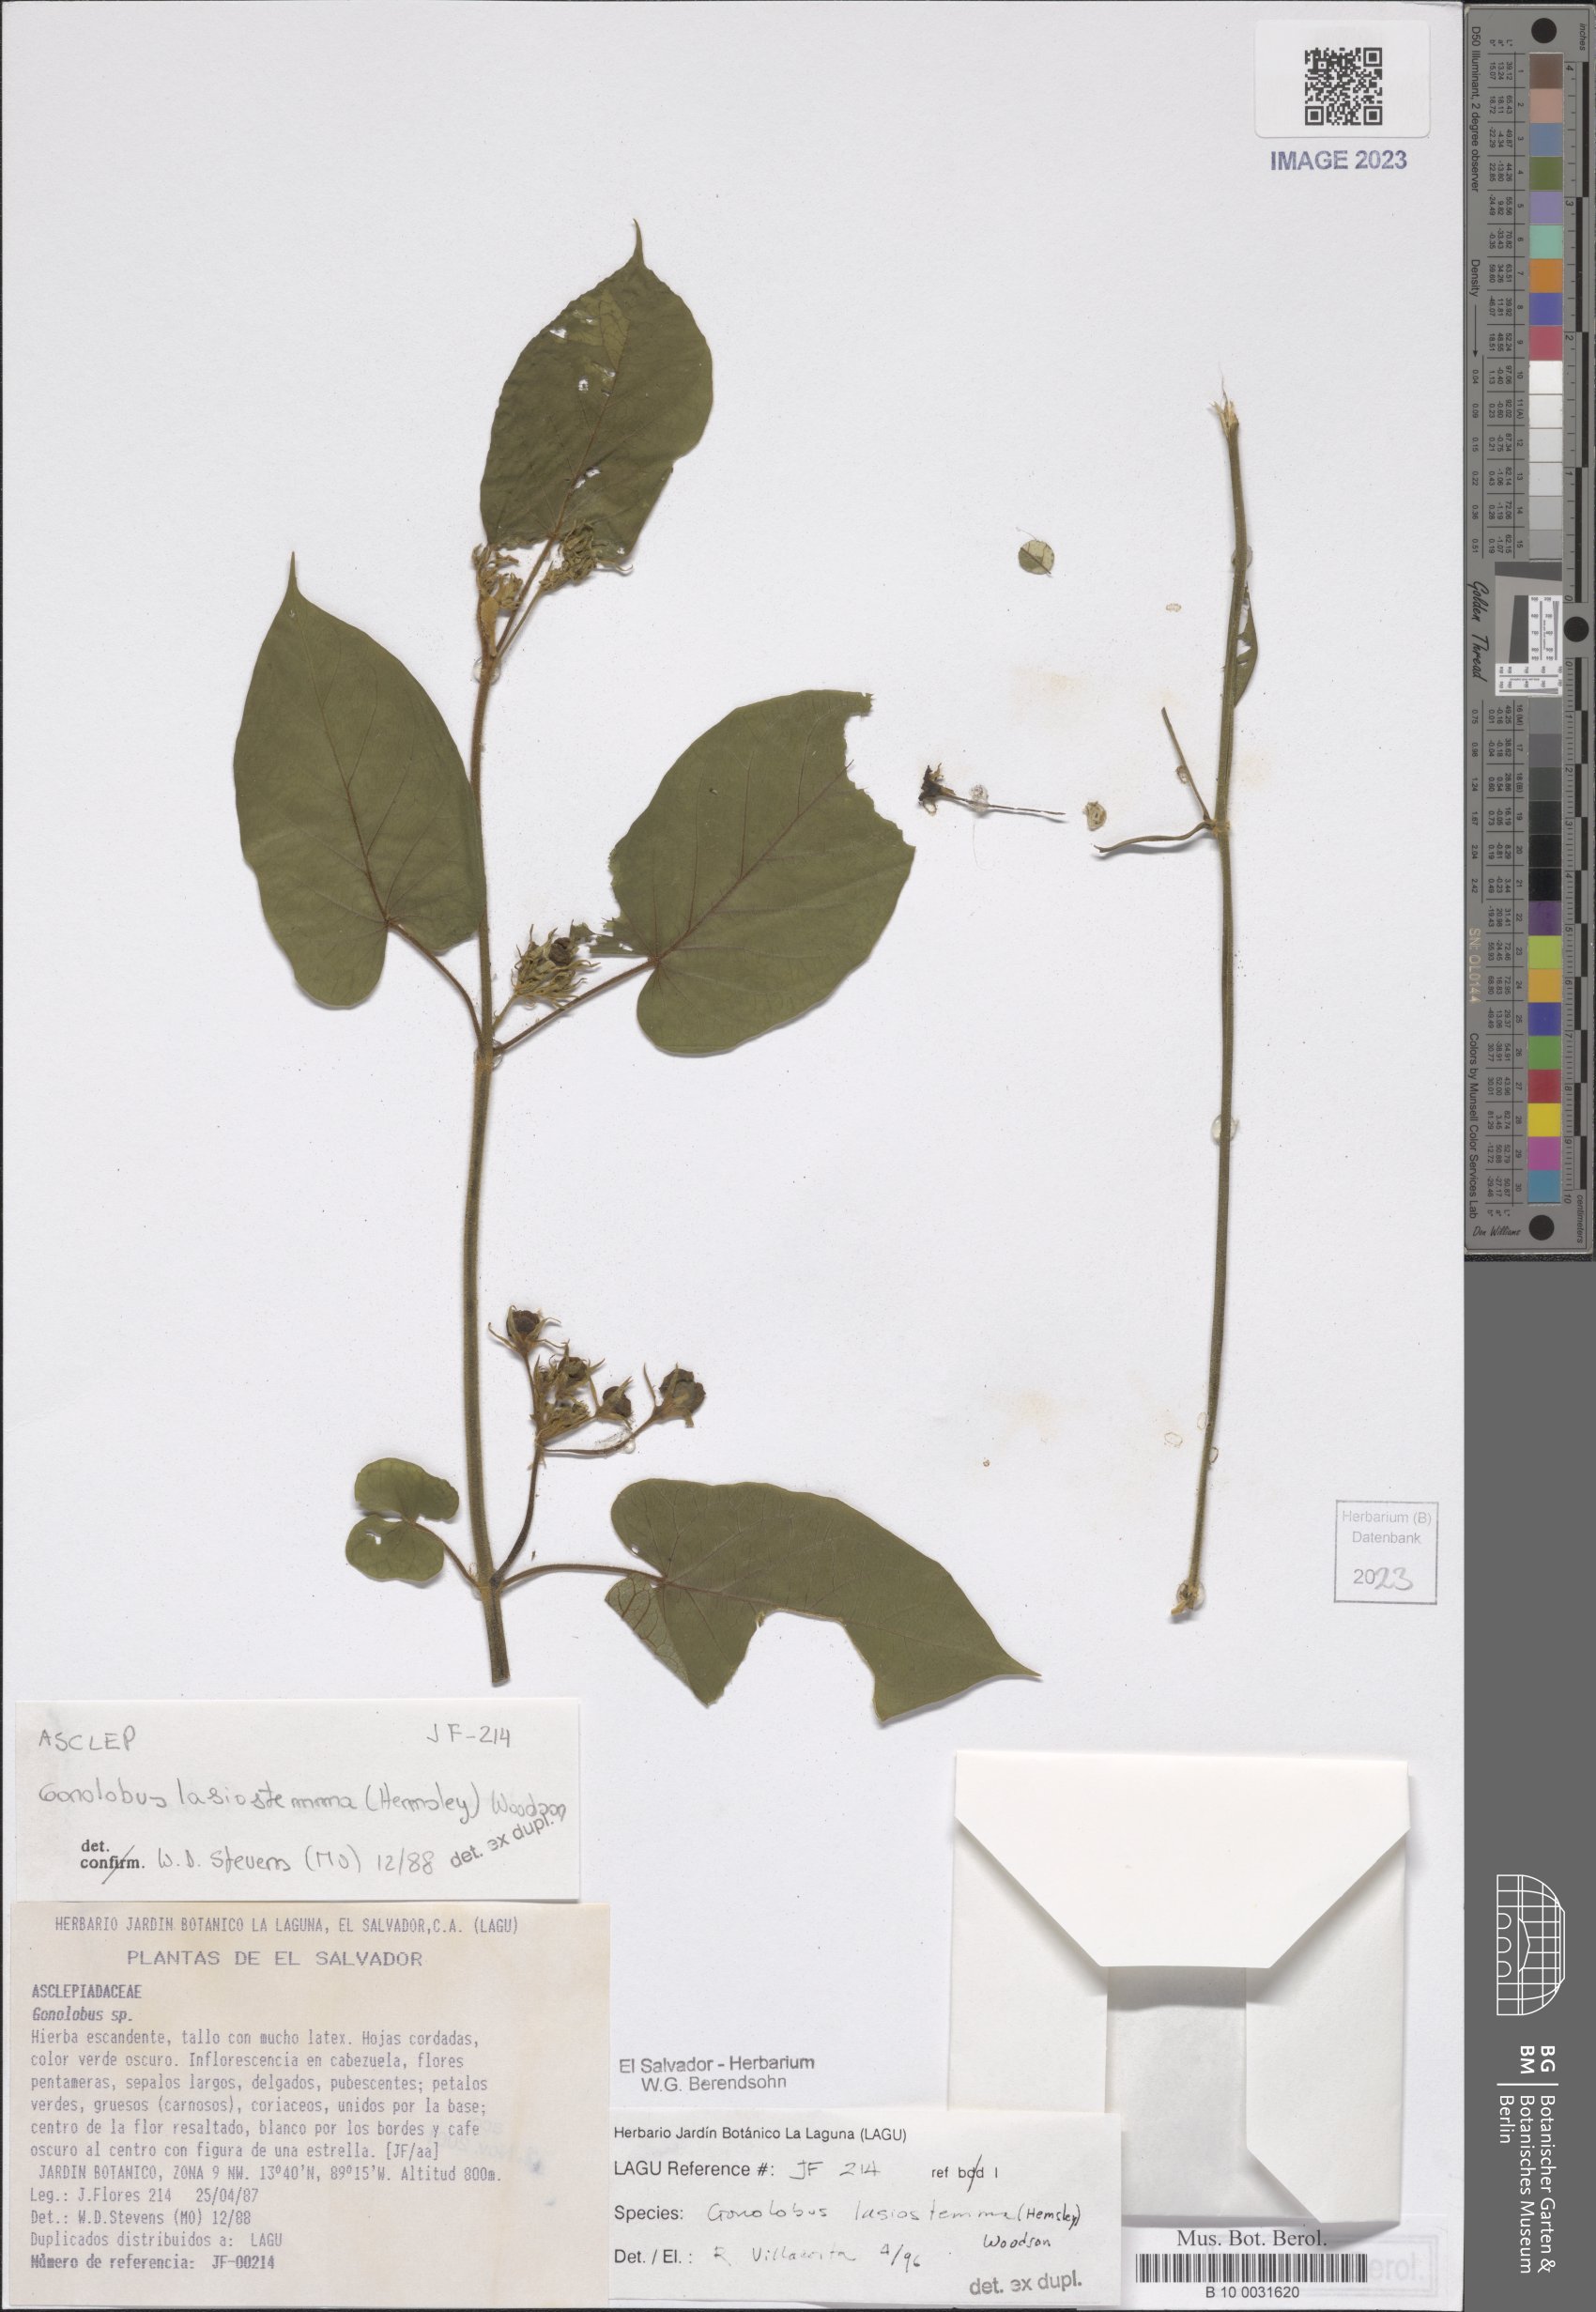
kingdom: Plantae
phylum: Tracheophyta
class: Magnoliopsida
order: Gentianales
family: Apocynaceae
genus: Gonolobus
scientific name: Gonolobus lasiostemma
